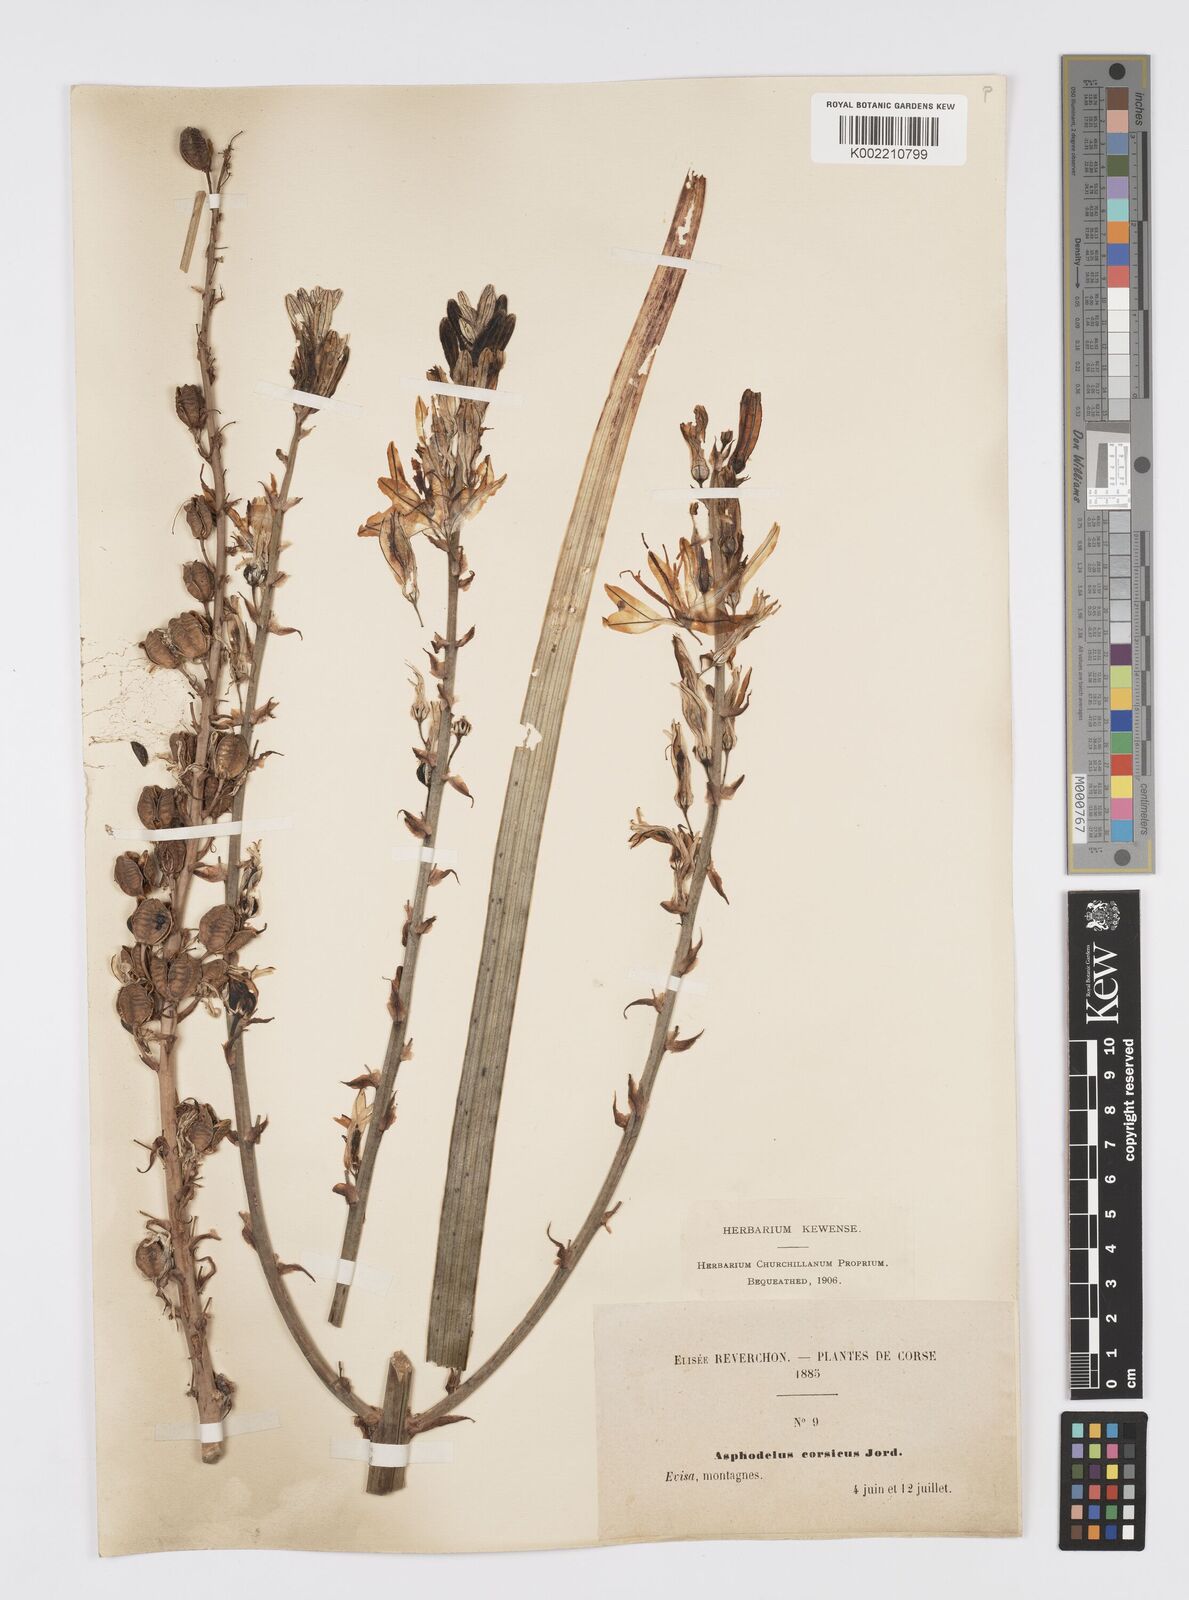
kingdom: Plantae
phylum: Tracheophyta
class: Liliopsida
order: Asparagales
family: Asphodelaceae
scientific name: Asphodelaceae
